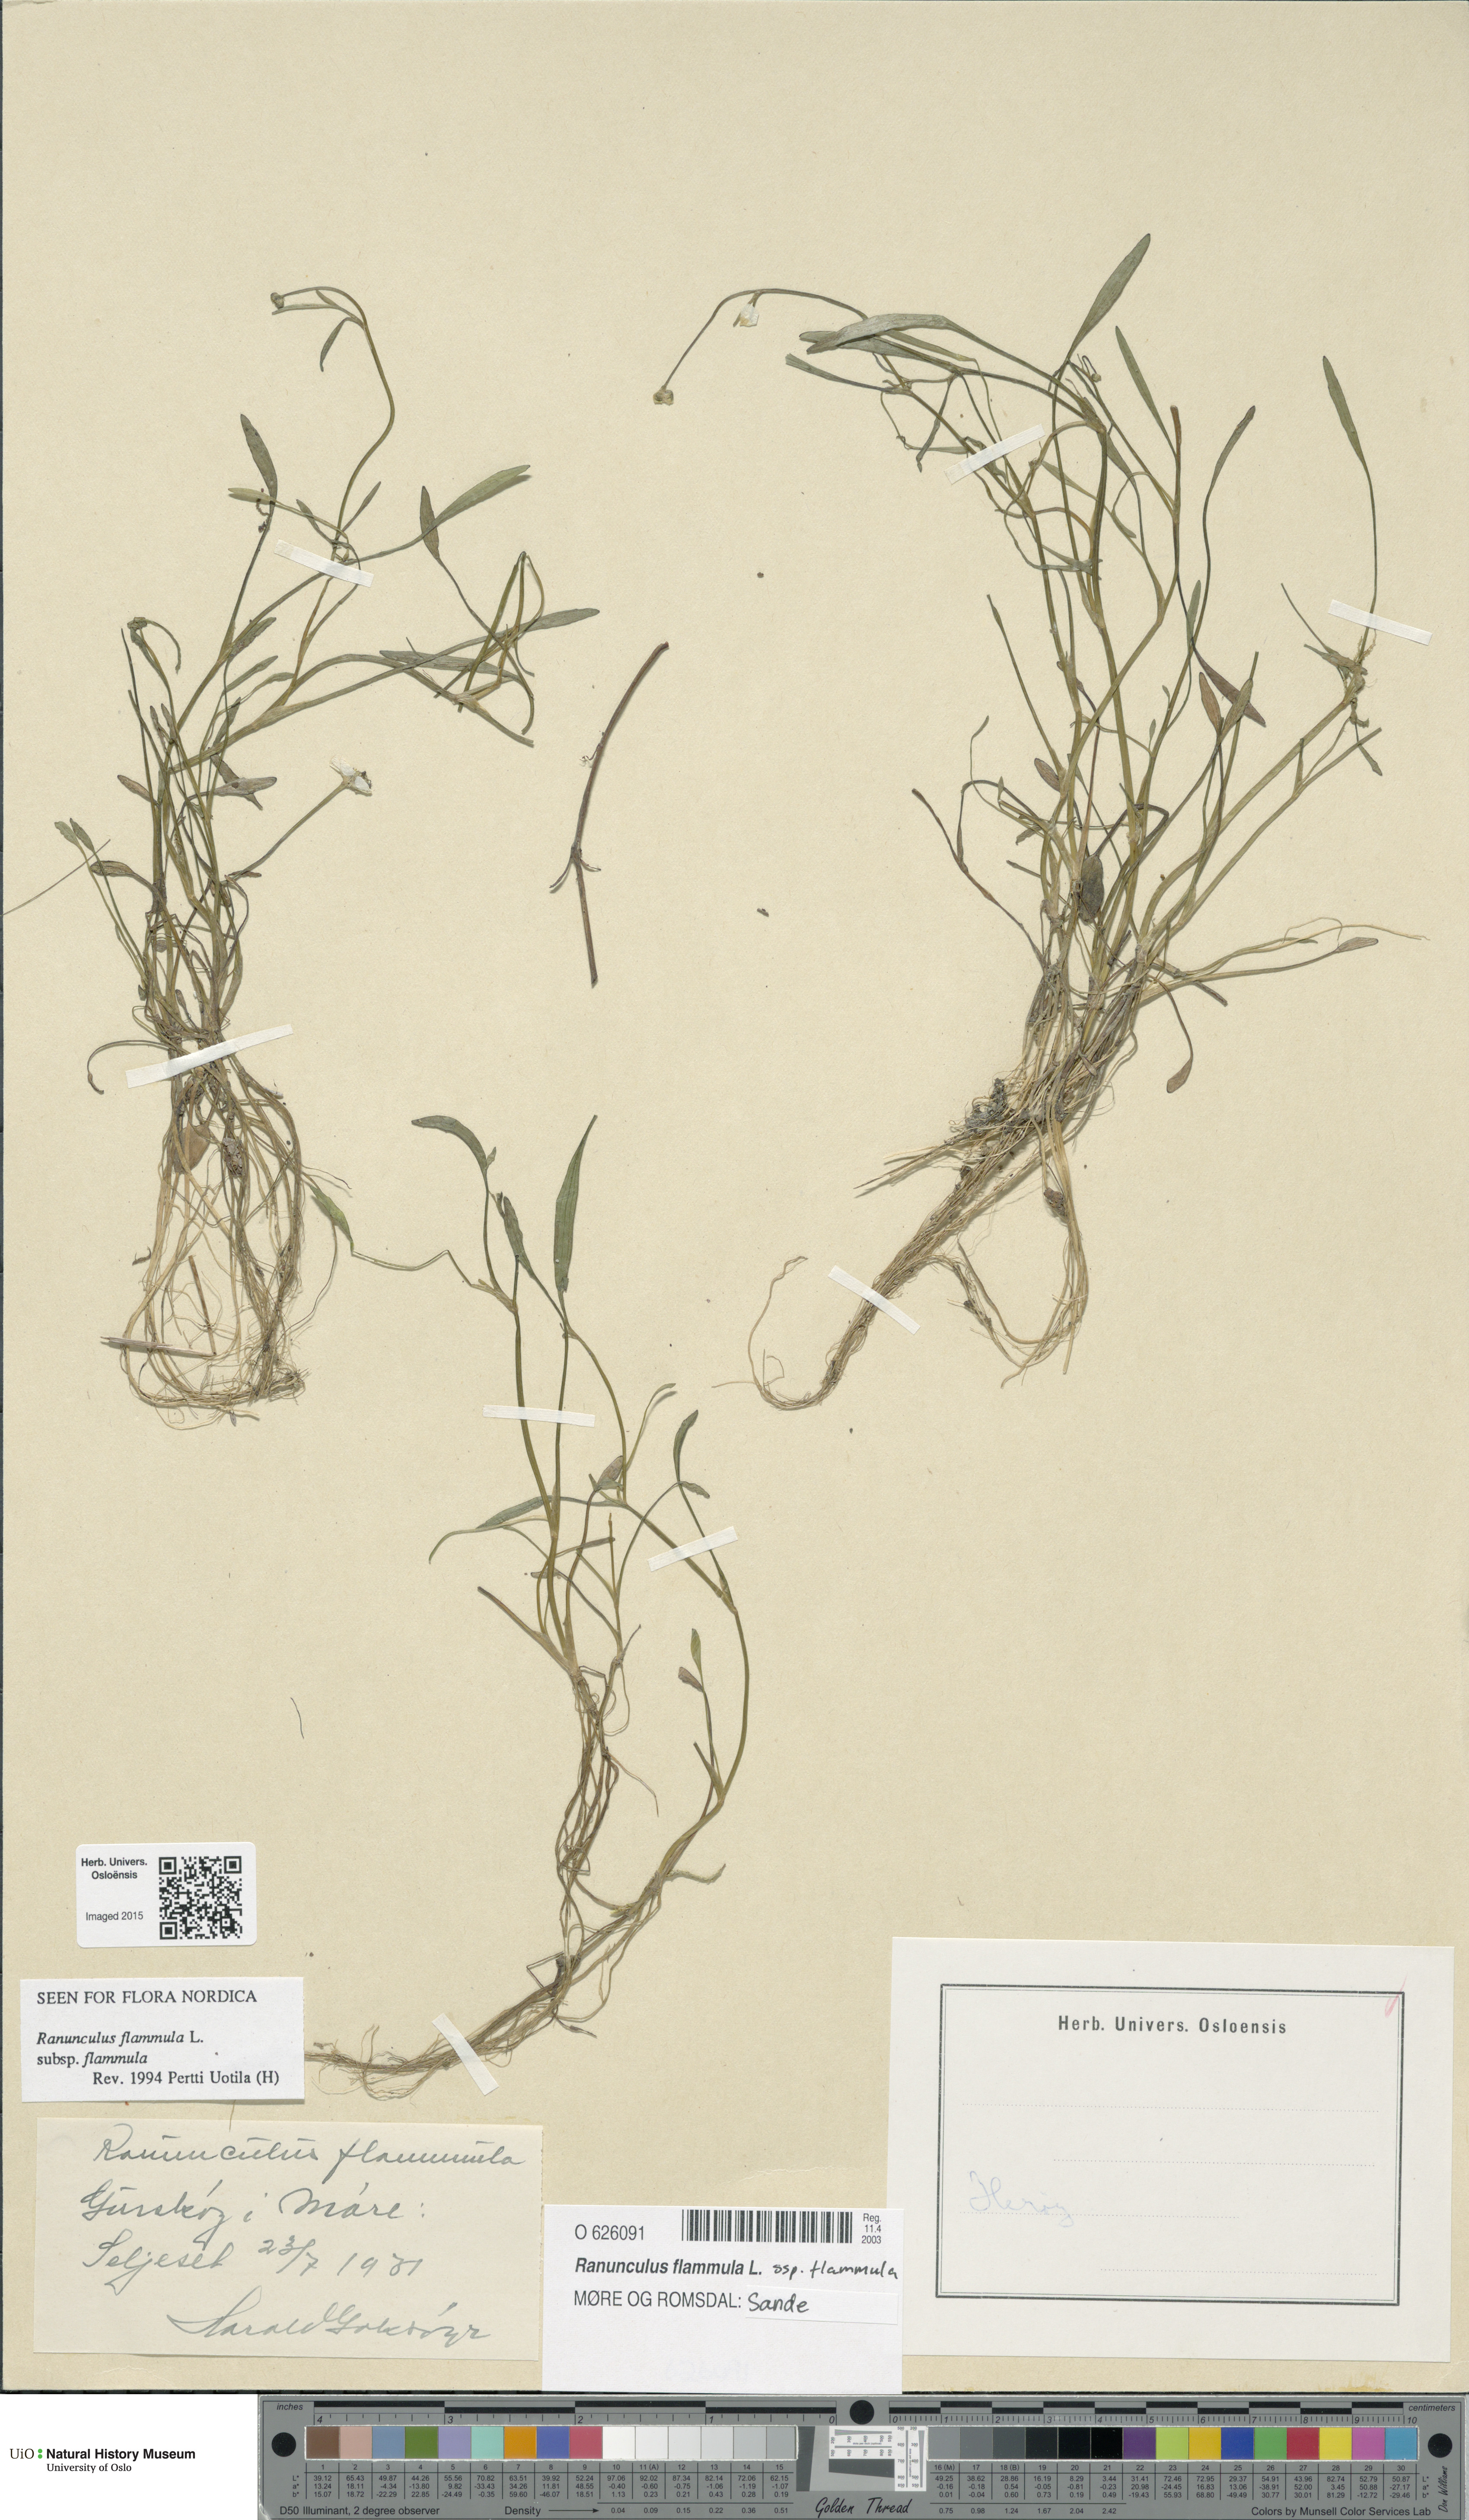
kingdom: Plantae
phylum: Tracheophyta
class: Magnoliopsida
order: Ranunculales
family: Ranunculaceae
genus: Ranunculus
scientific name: Ranunculus flammula
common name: Lesser spearwort
